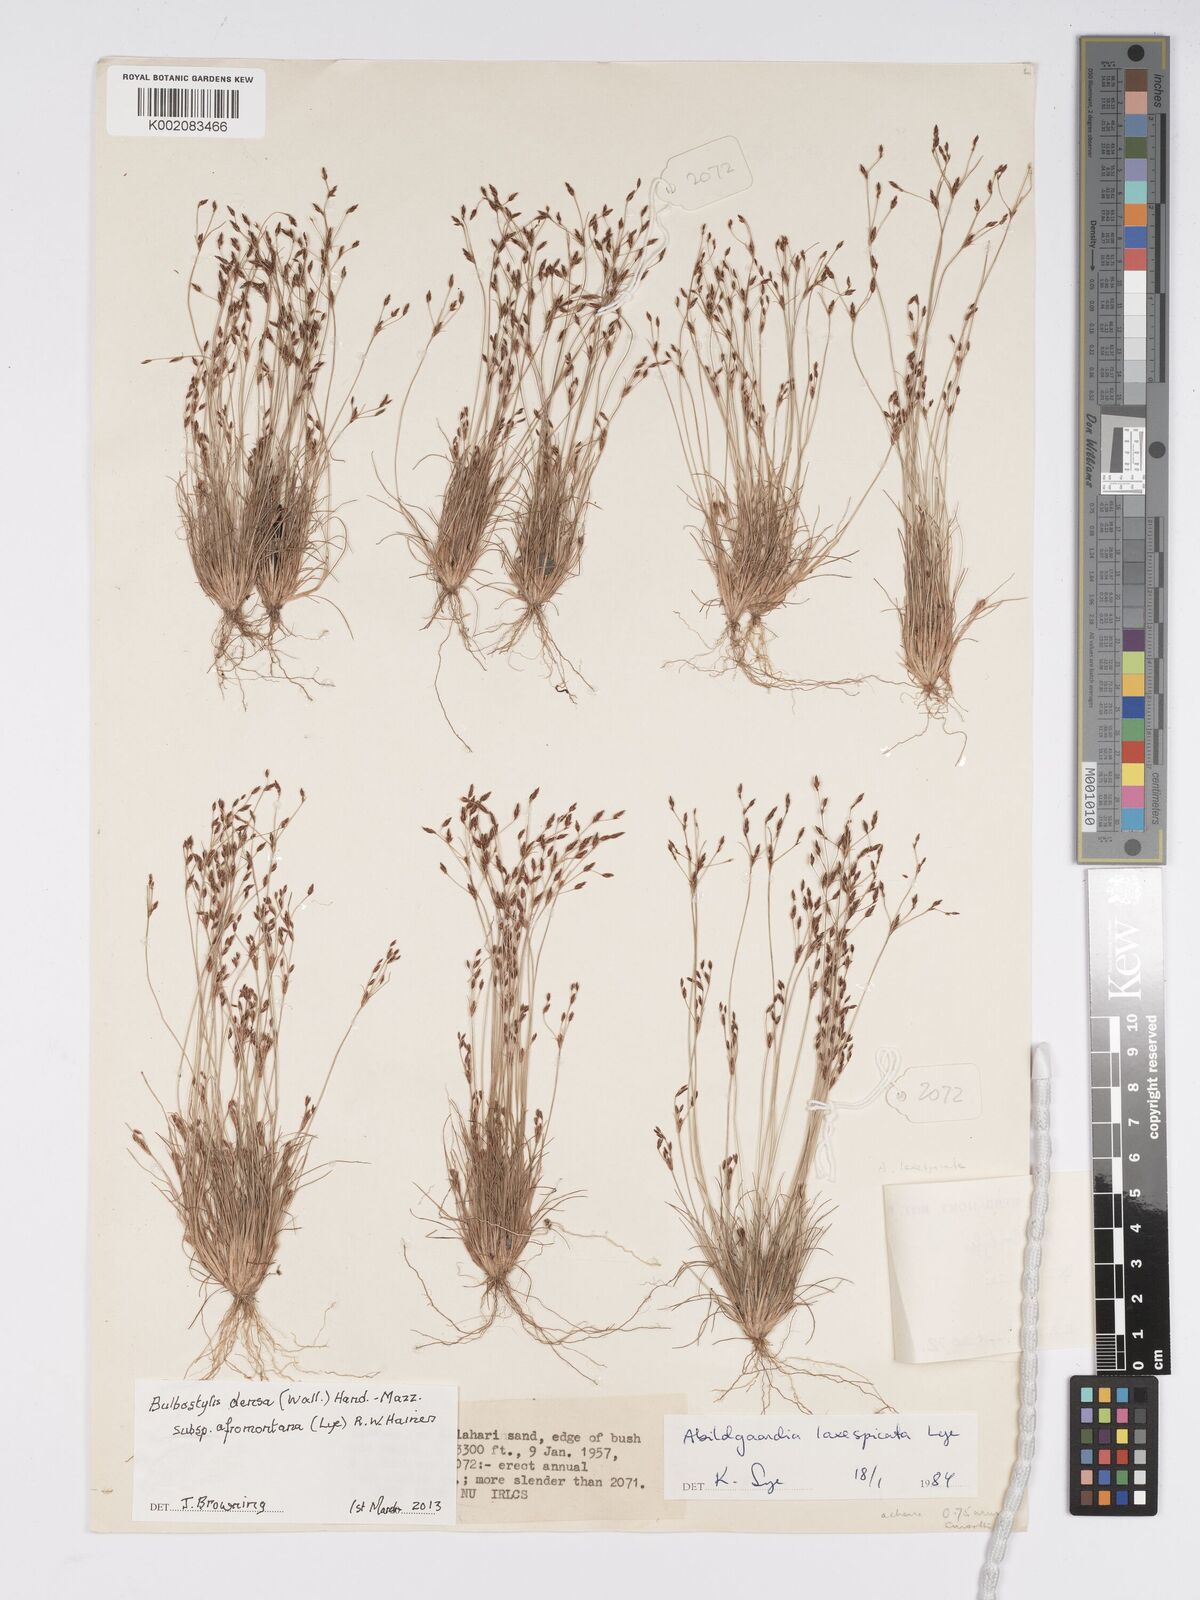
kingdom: Plantae
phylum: Tracheophyta
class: Liliopsida
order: Poales
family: Cyperaceae
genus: Bulbostylis
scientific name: Bulbostylis capillaris
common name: Densetuft hairsedge
